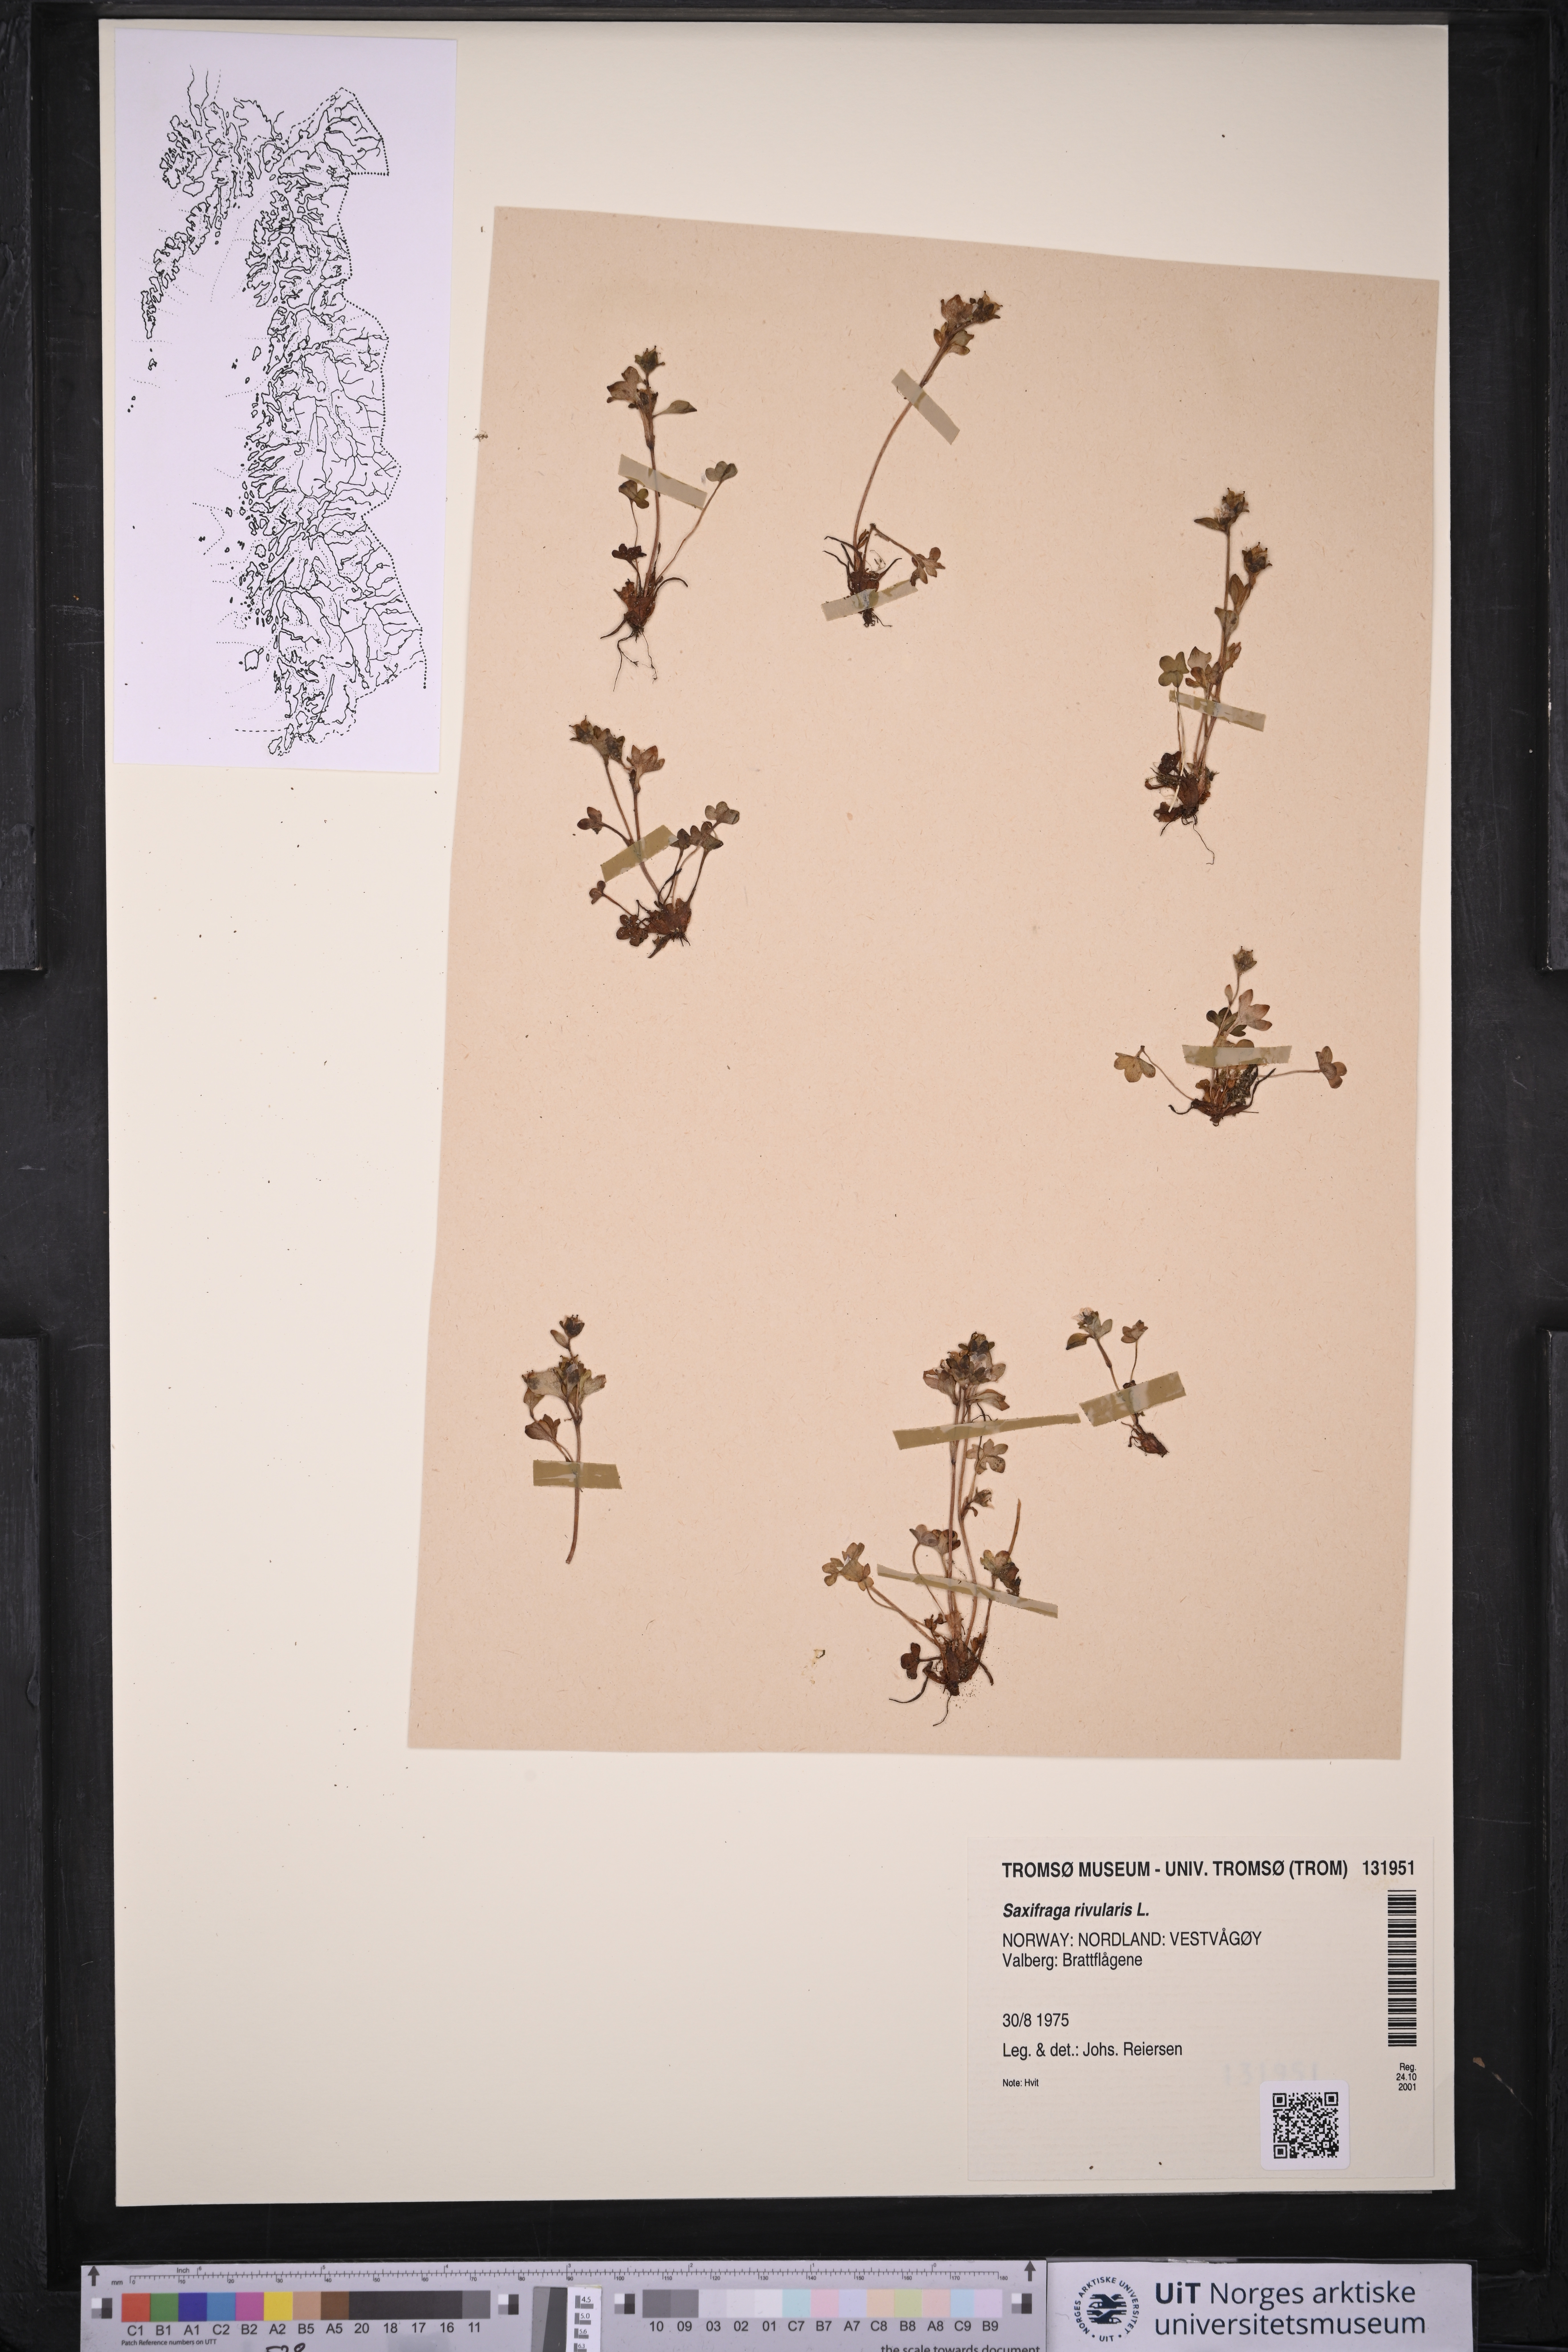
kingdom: Plantae
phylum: Tracheophyta
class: Magnoliopsida
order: Saxifragales
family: Saxifragaceae
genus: Saxifraga
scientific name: Saxifraga rivularis
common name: Highland saxifrage
